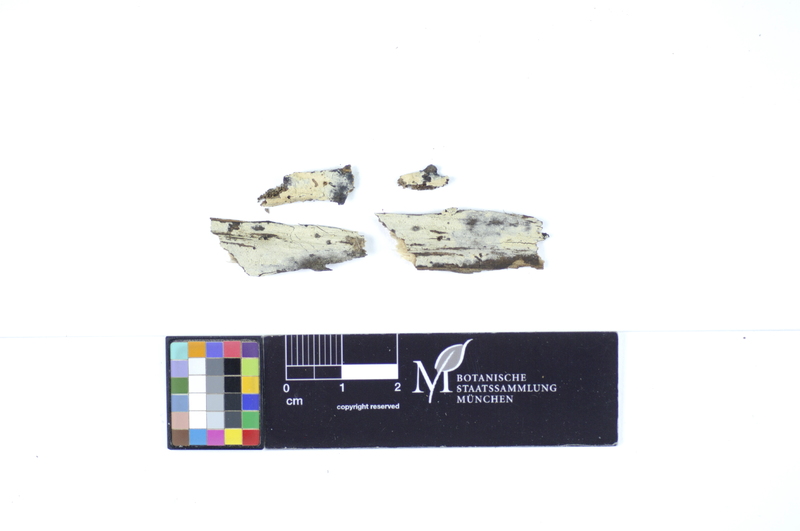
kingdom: Fungi
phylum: Basidiomycota
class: Agaricomycetes
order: Polyporales
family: Hyphodermataceae
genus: Hyphoderma
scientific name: Hyphoderma setigerum
